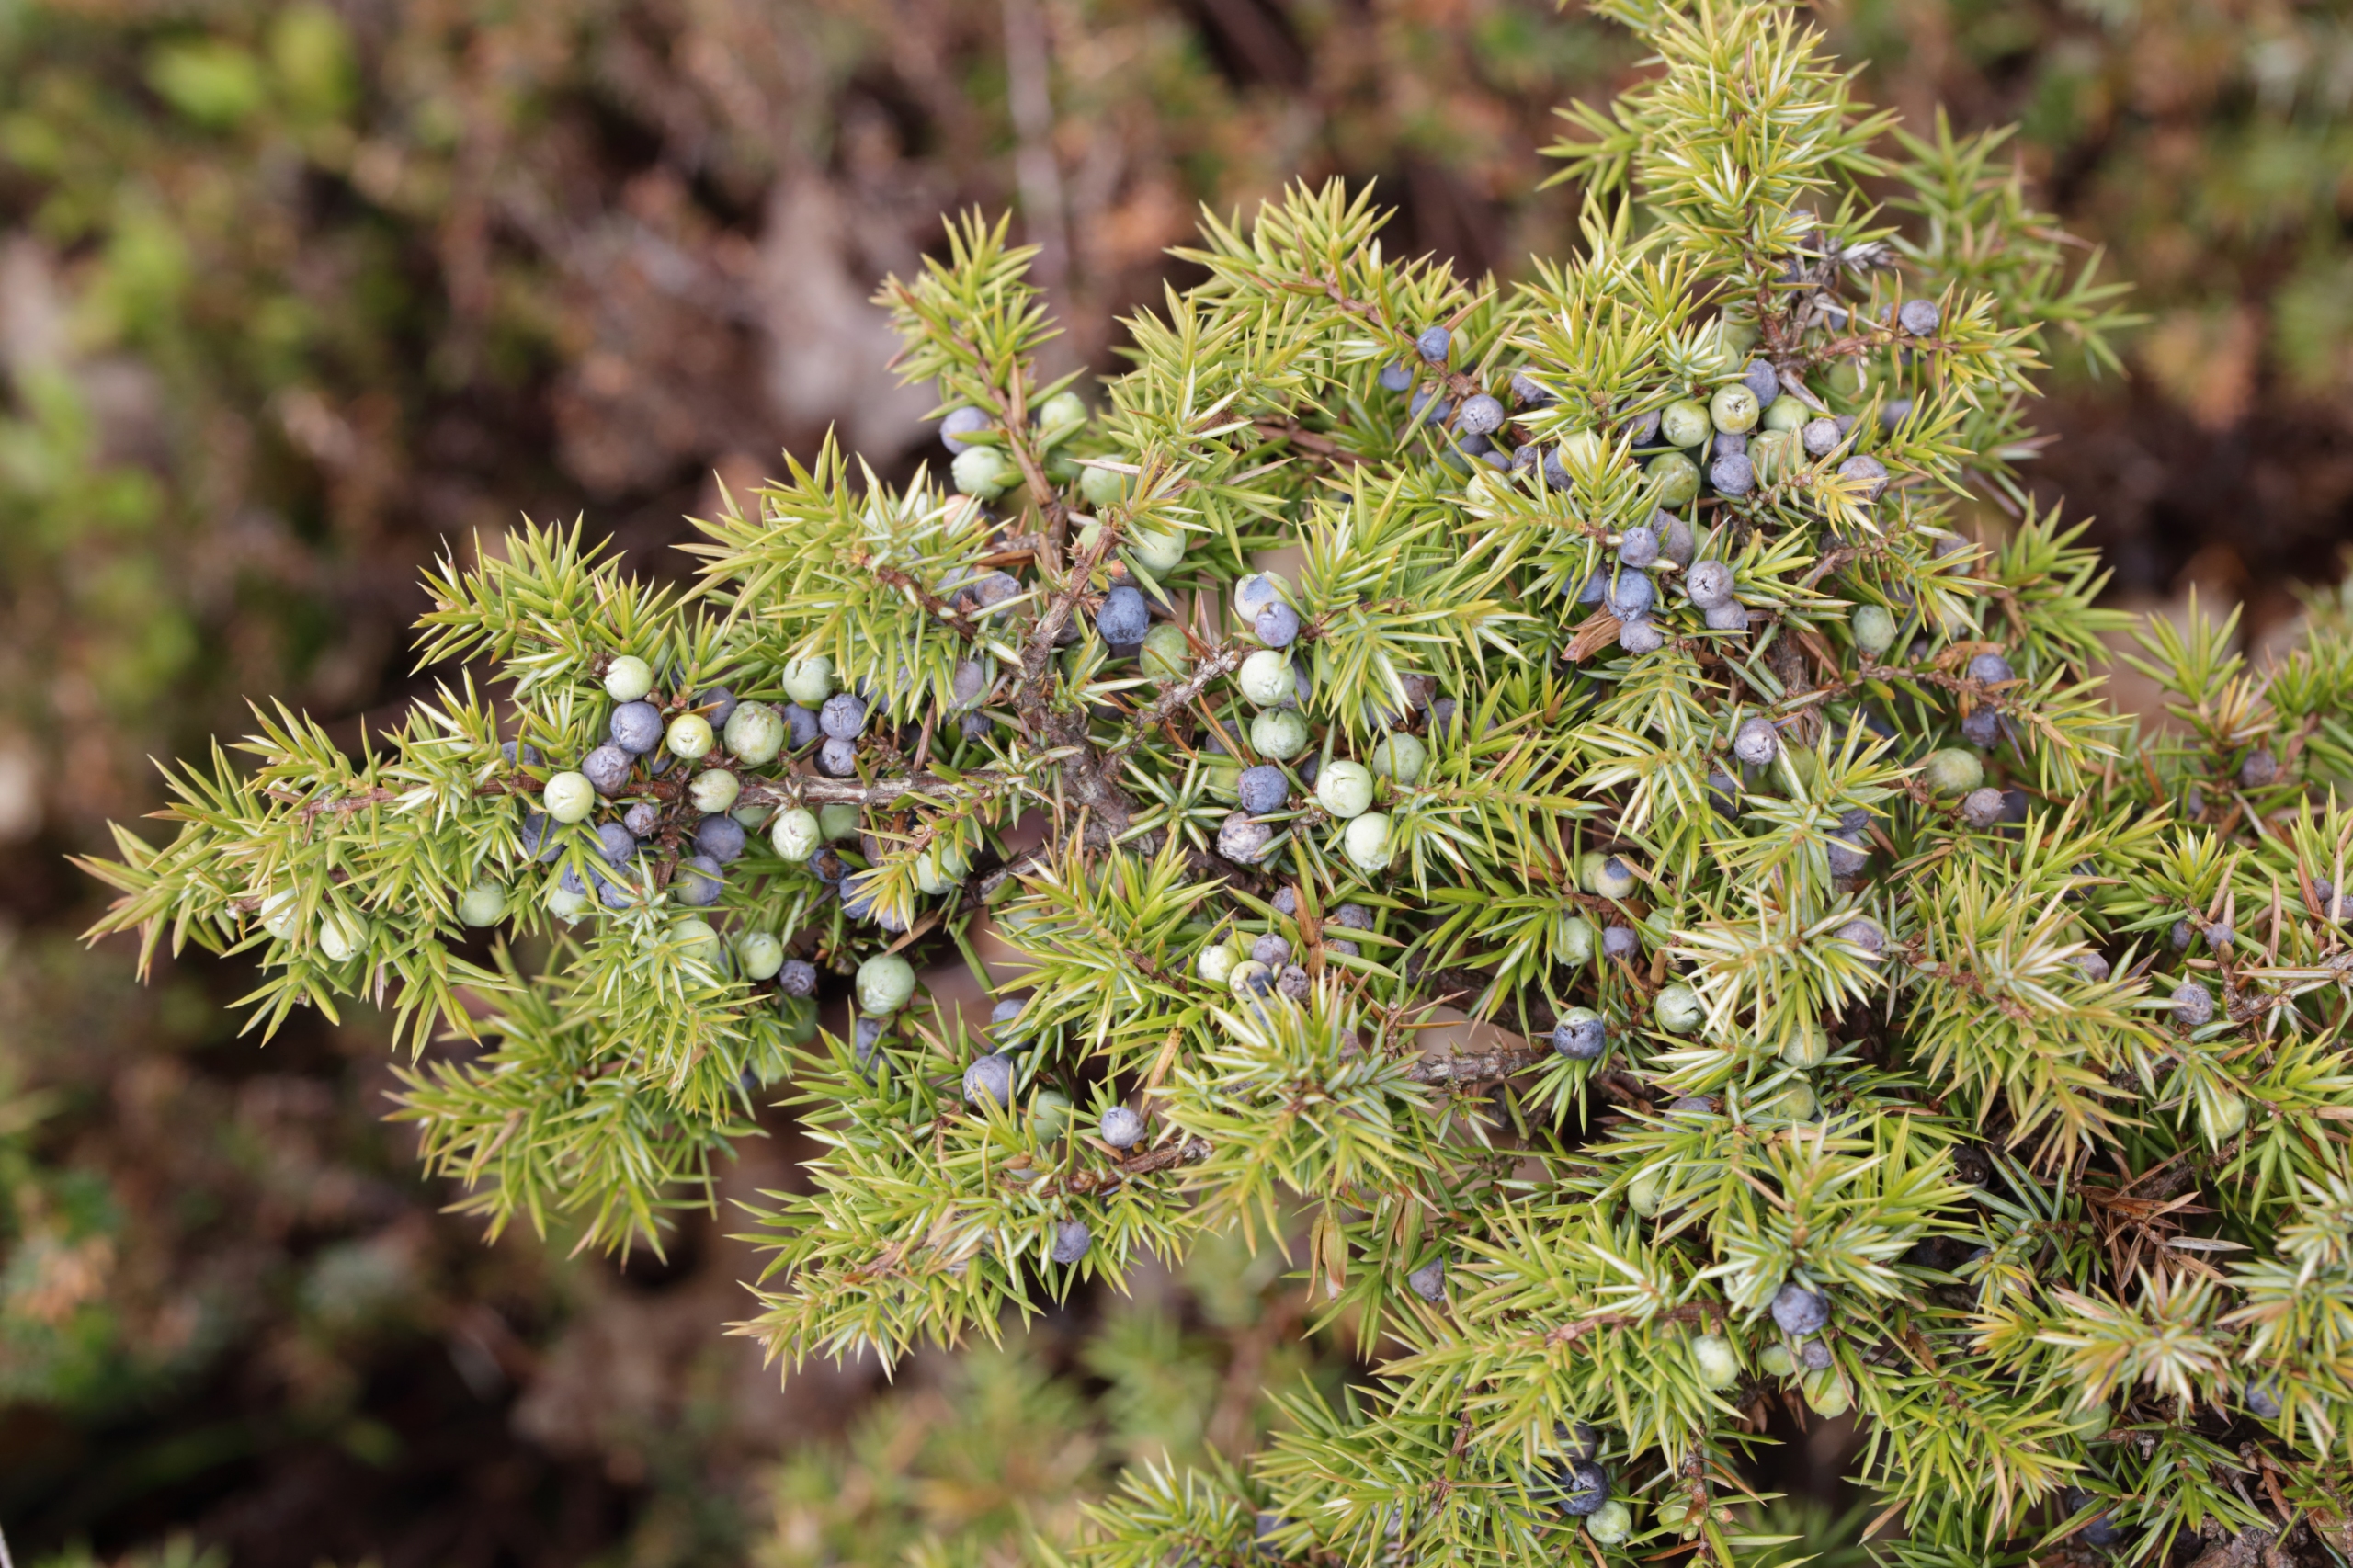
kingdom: Plantae
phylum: Tracheophyta
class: Pinopsida
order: Pinales
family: Cupressaceae
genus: Juniperus
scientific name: Juniperus communis
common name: Almindelig ene
